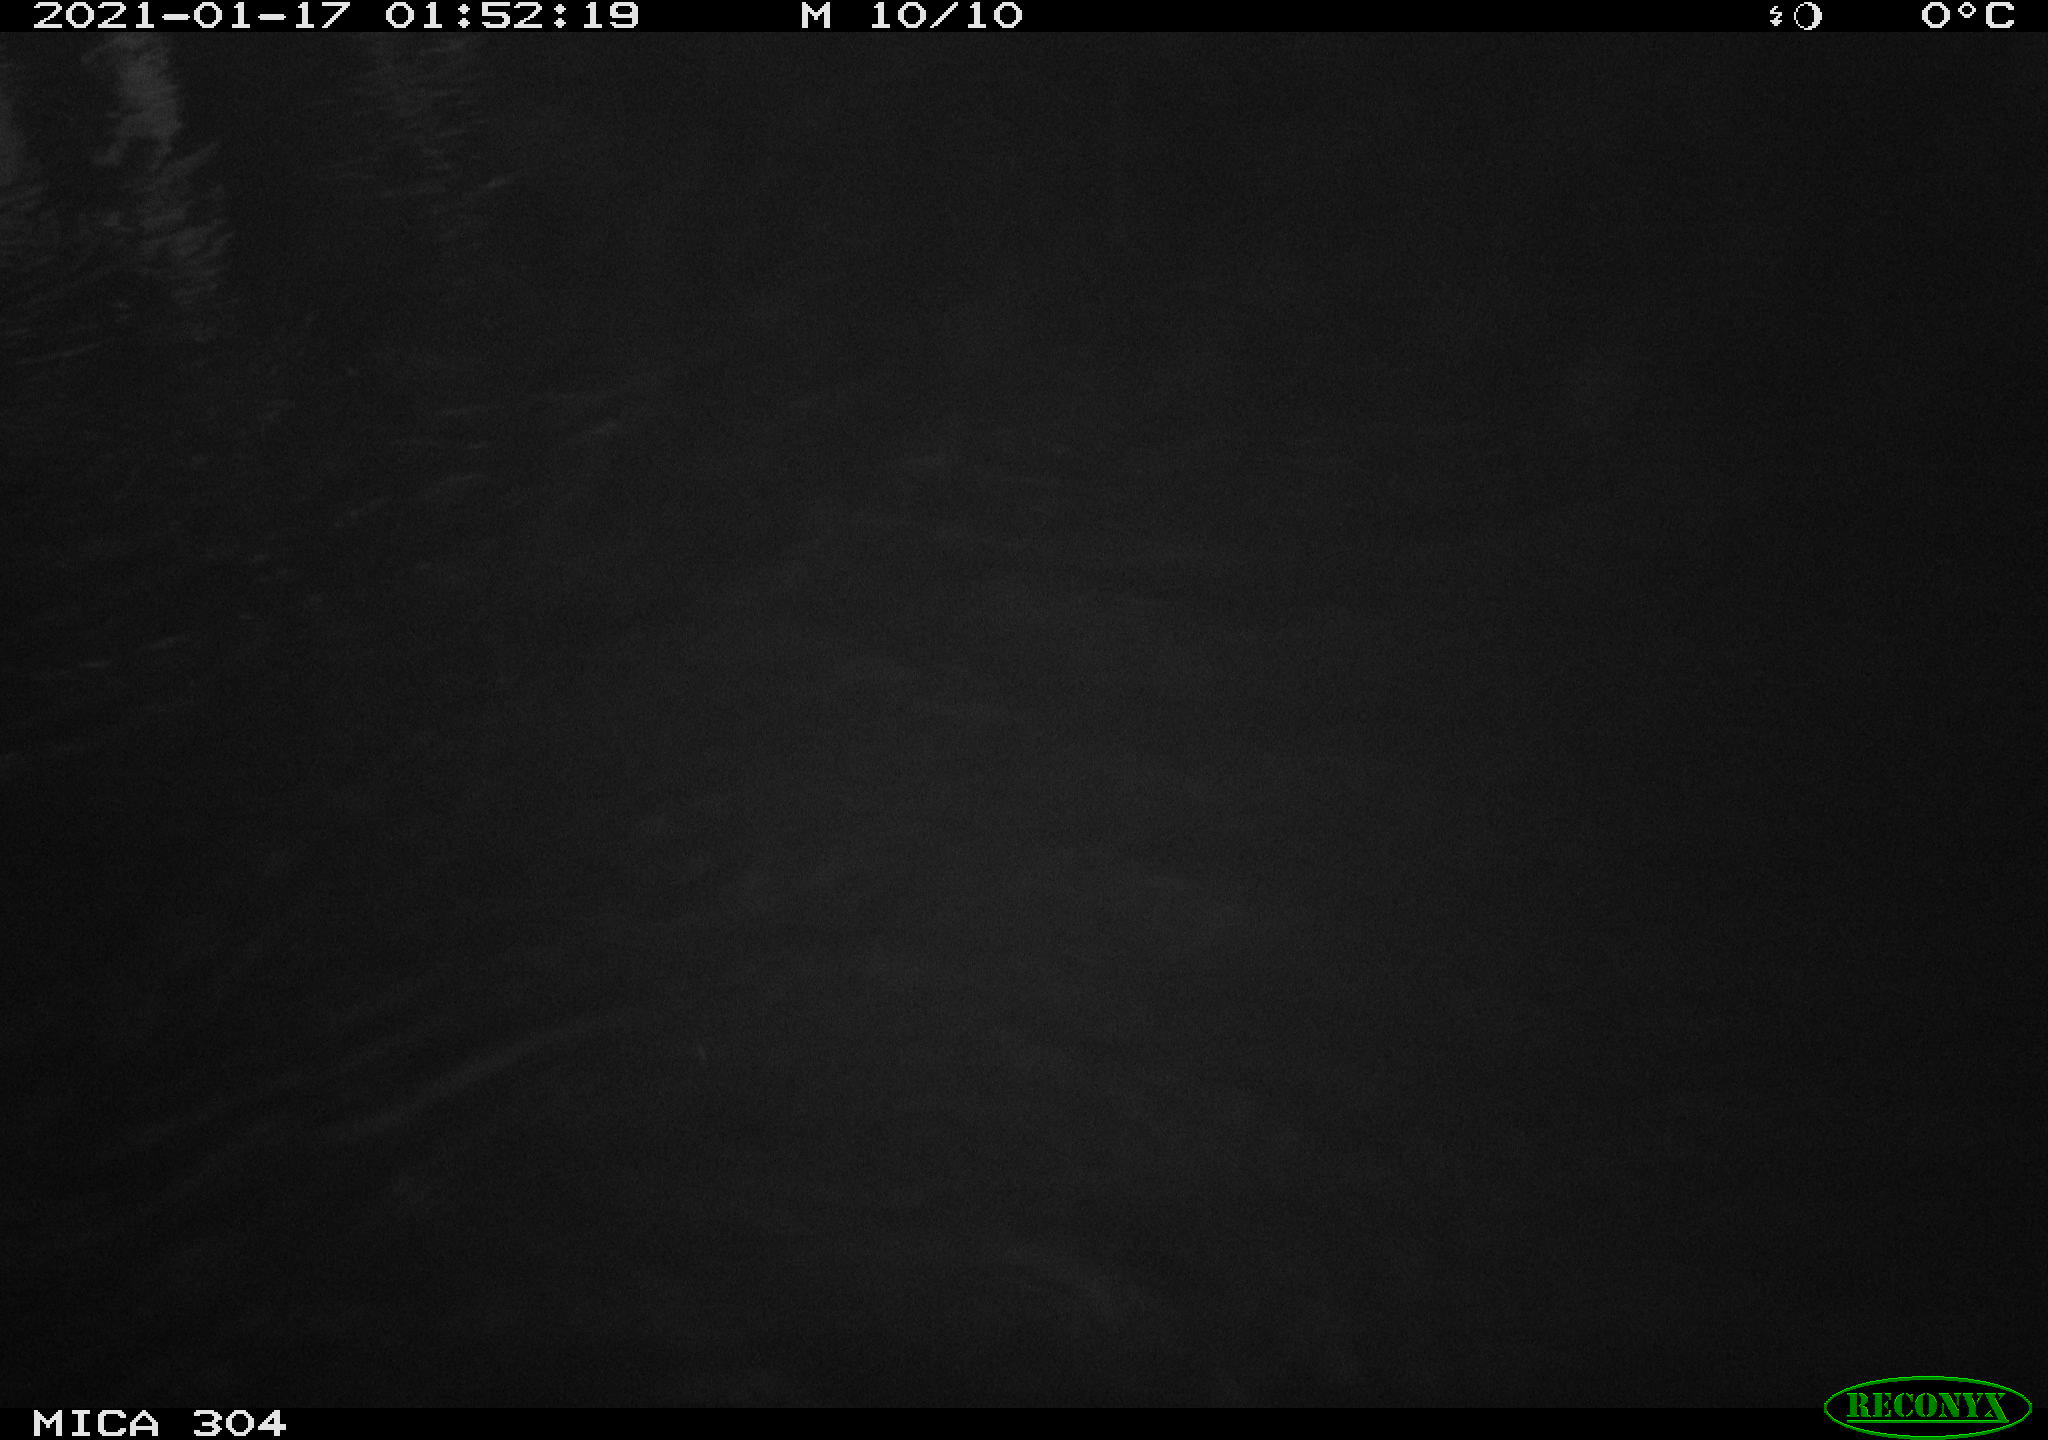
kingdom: Animalia
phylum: Chordata
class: Aves
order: Anseriformes
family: Anatidae
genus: Anas
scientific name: Anas platyrhynchos
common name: Mallard
